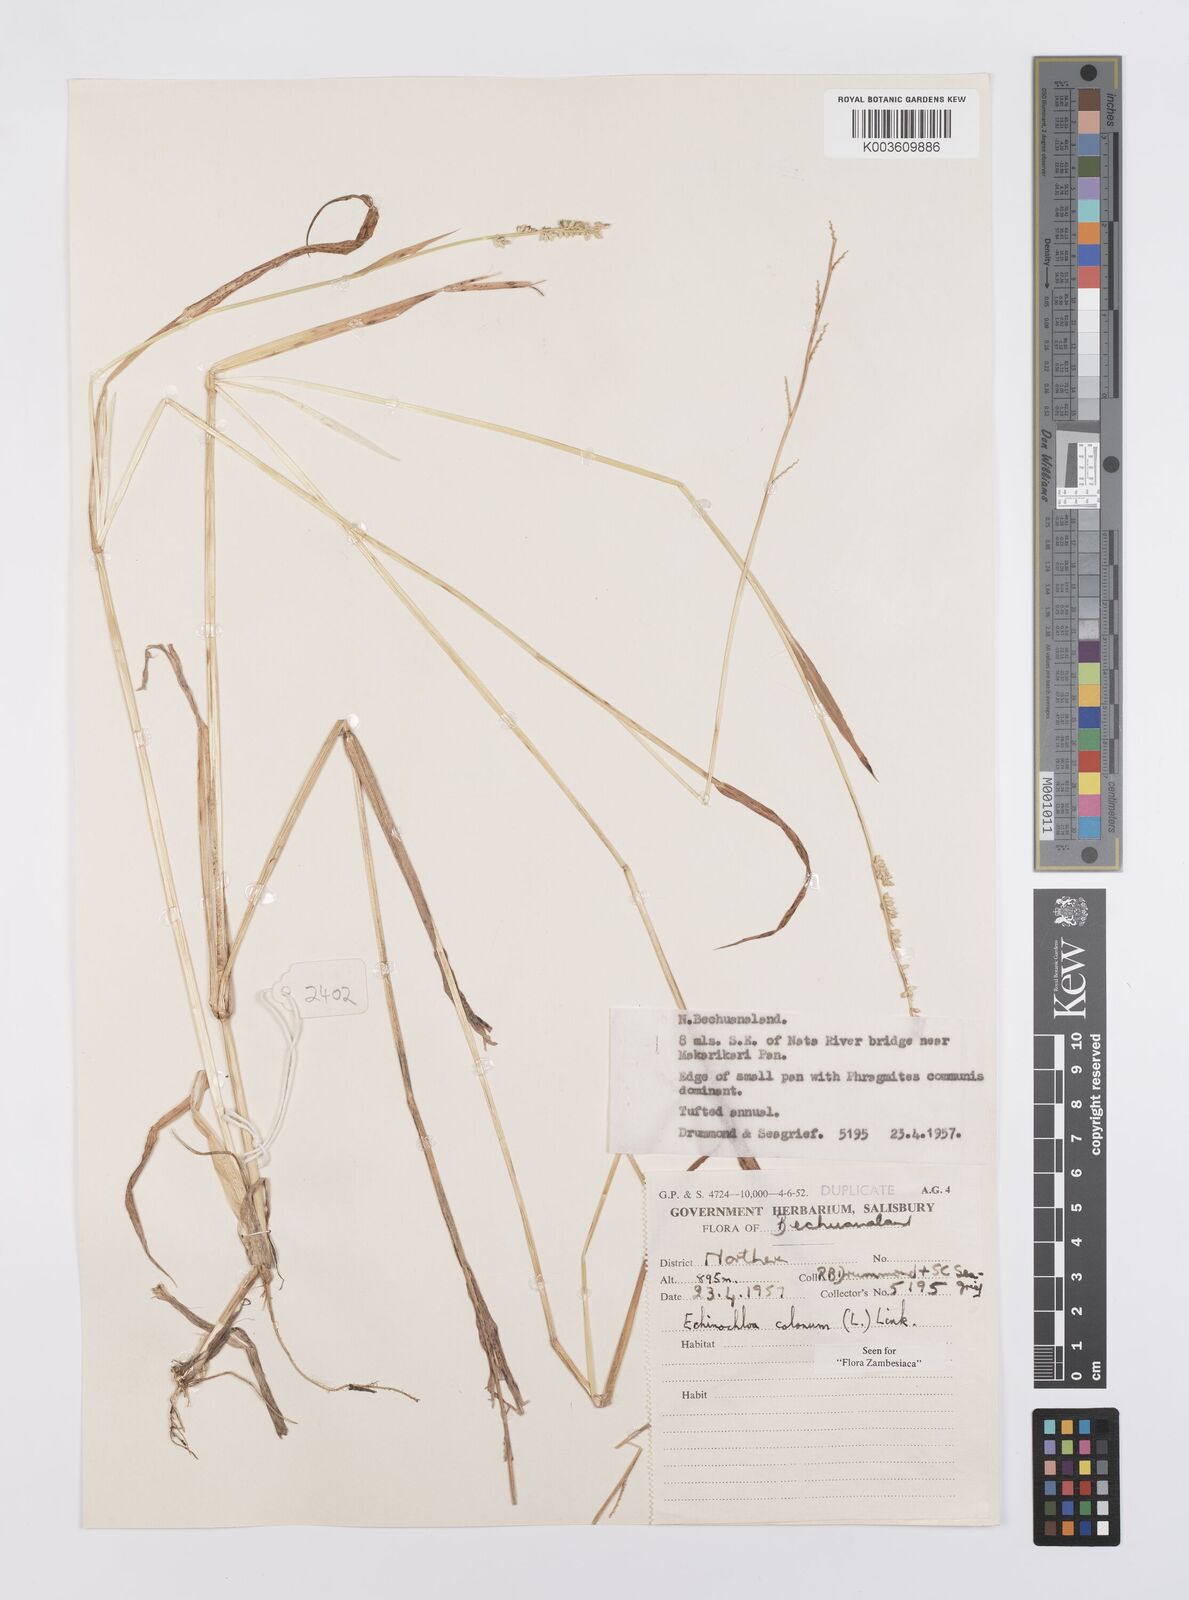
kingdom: Plantae
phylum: Tracheophyta
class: Liliopsida
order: Poales
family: Poaceae
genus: Echinochloa
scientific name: Echinochloa colonum
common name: Jungle rice
